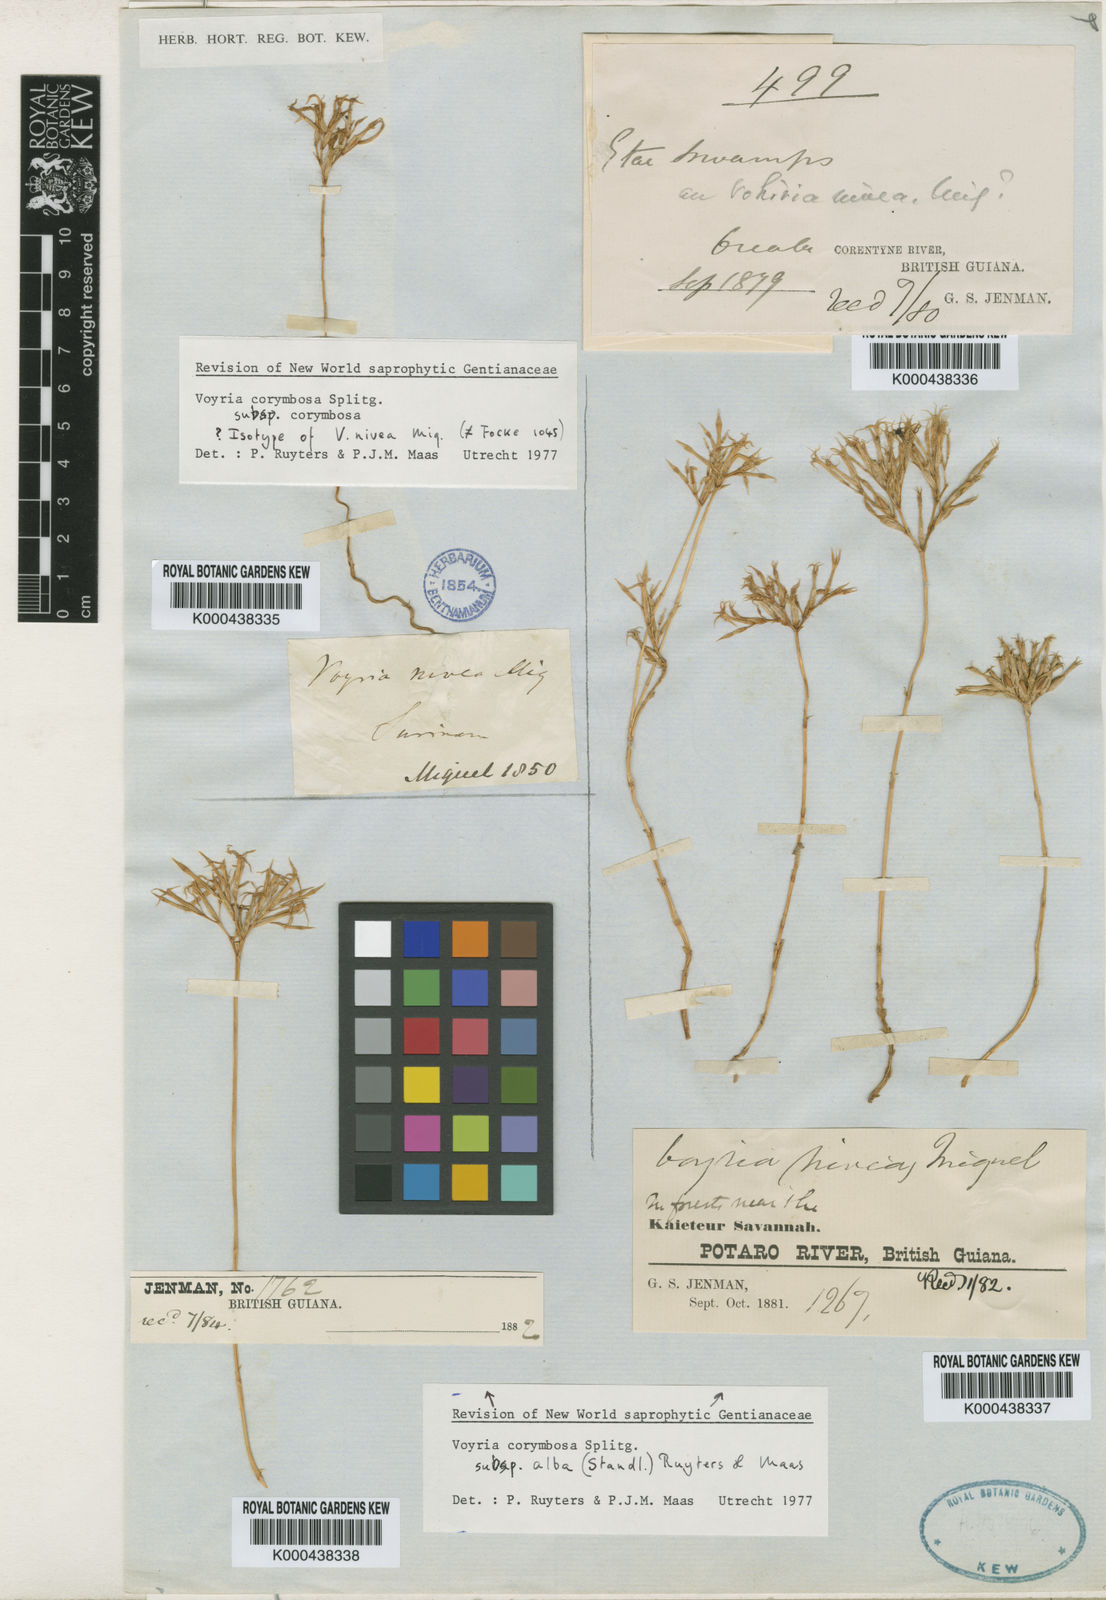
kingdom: Plantae
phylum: Tracheophyta
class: Magnoliopsida
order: Gentianales
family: Gentianaceae
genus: Voyria
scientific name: Voyria corymbosa
